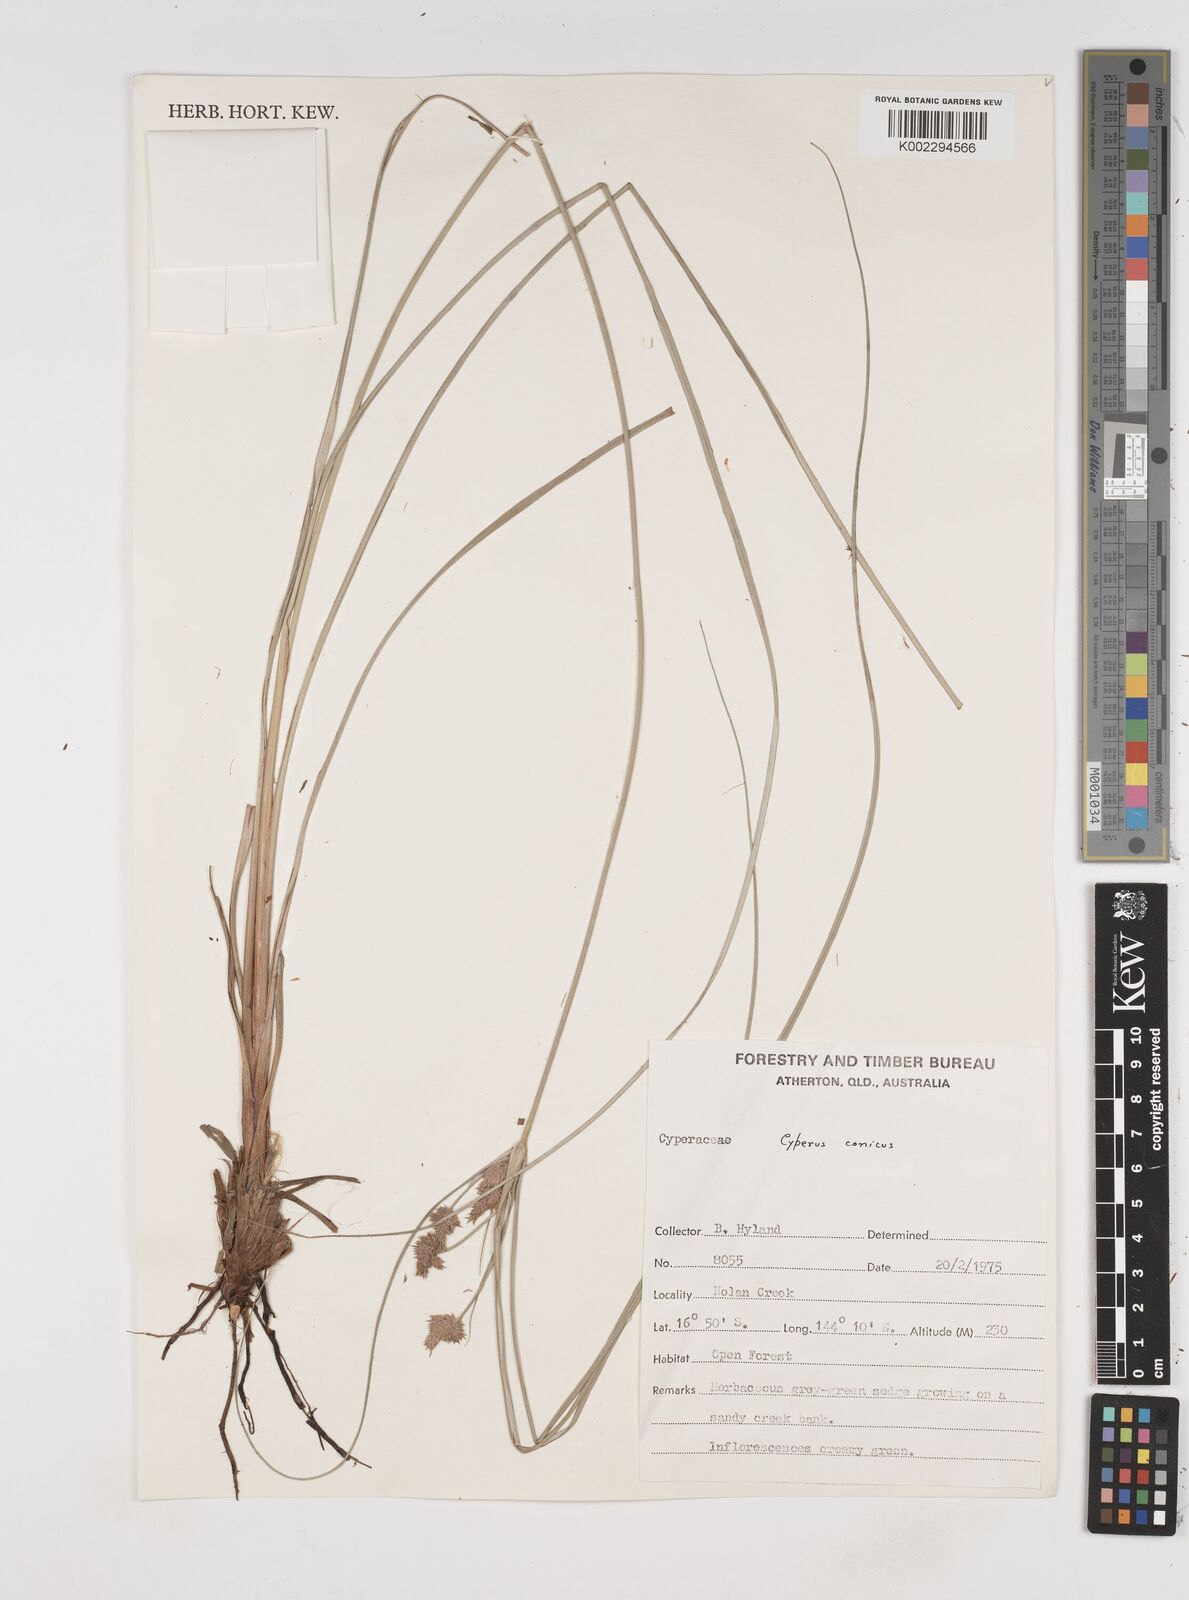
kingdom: Plantae
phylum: Tracheophyta
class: Liliopsida
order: Poales
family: Cyperaceae
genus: Cyperus
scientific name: Cyperus conicus
